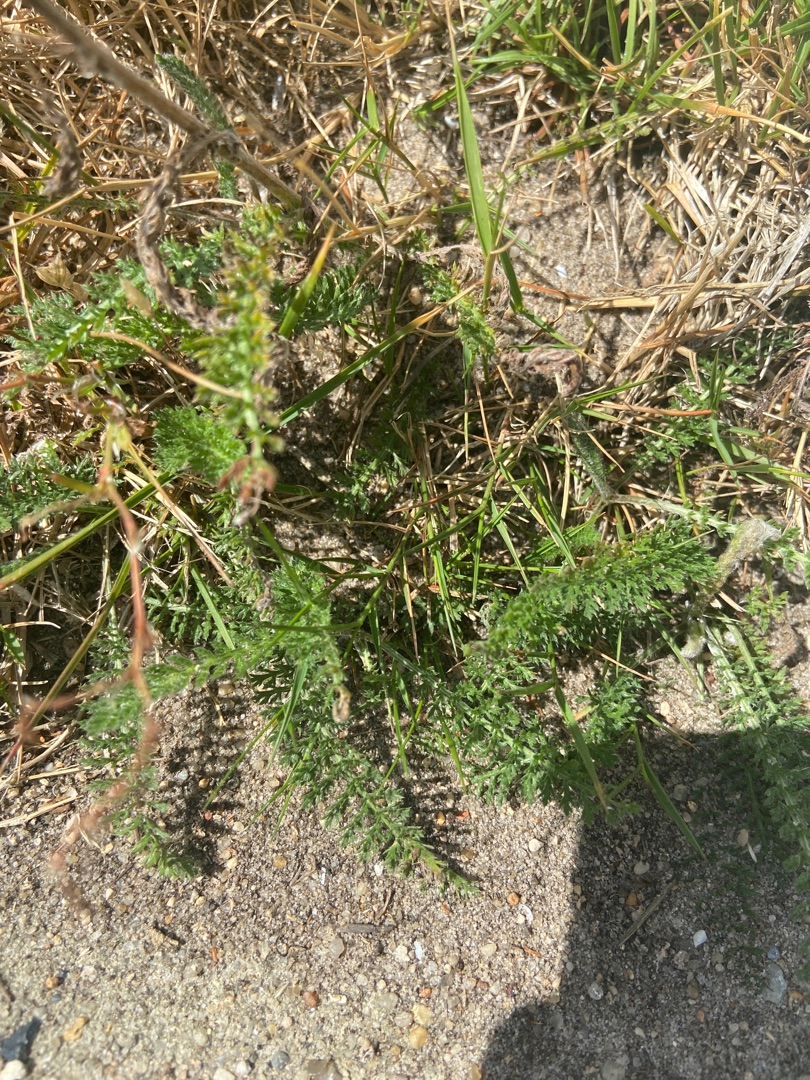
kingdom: Plantae
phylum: Tracheophyta
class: Magnoliopsida
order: Asterales
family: Asteraceae
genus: Achillea
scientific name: Achillea millefolium
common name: Almindelig røllike
